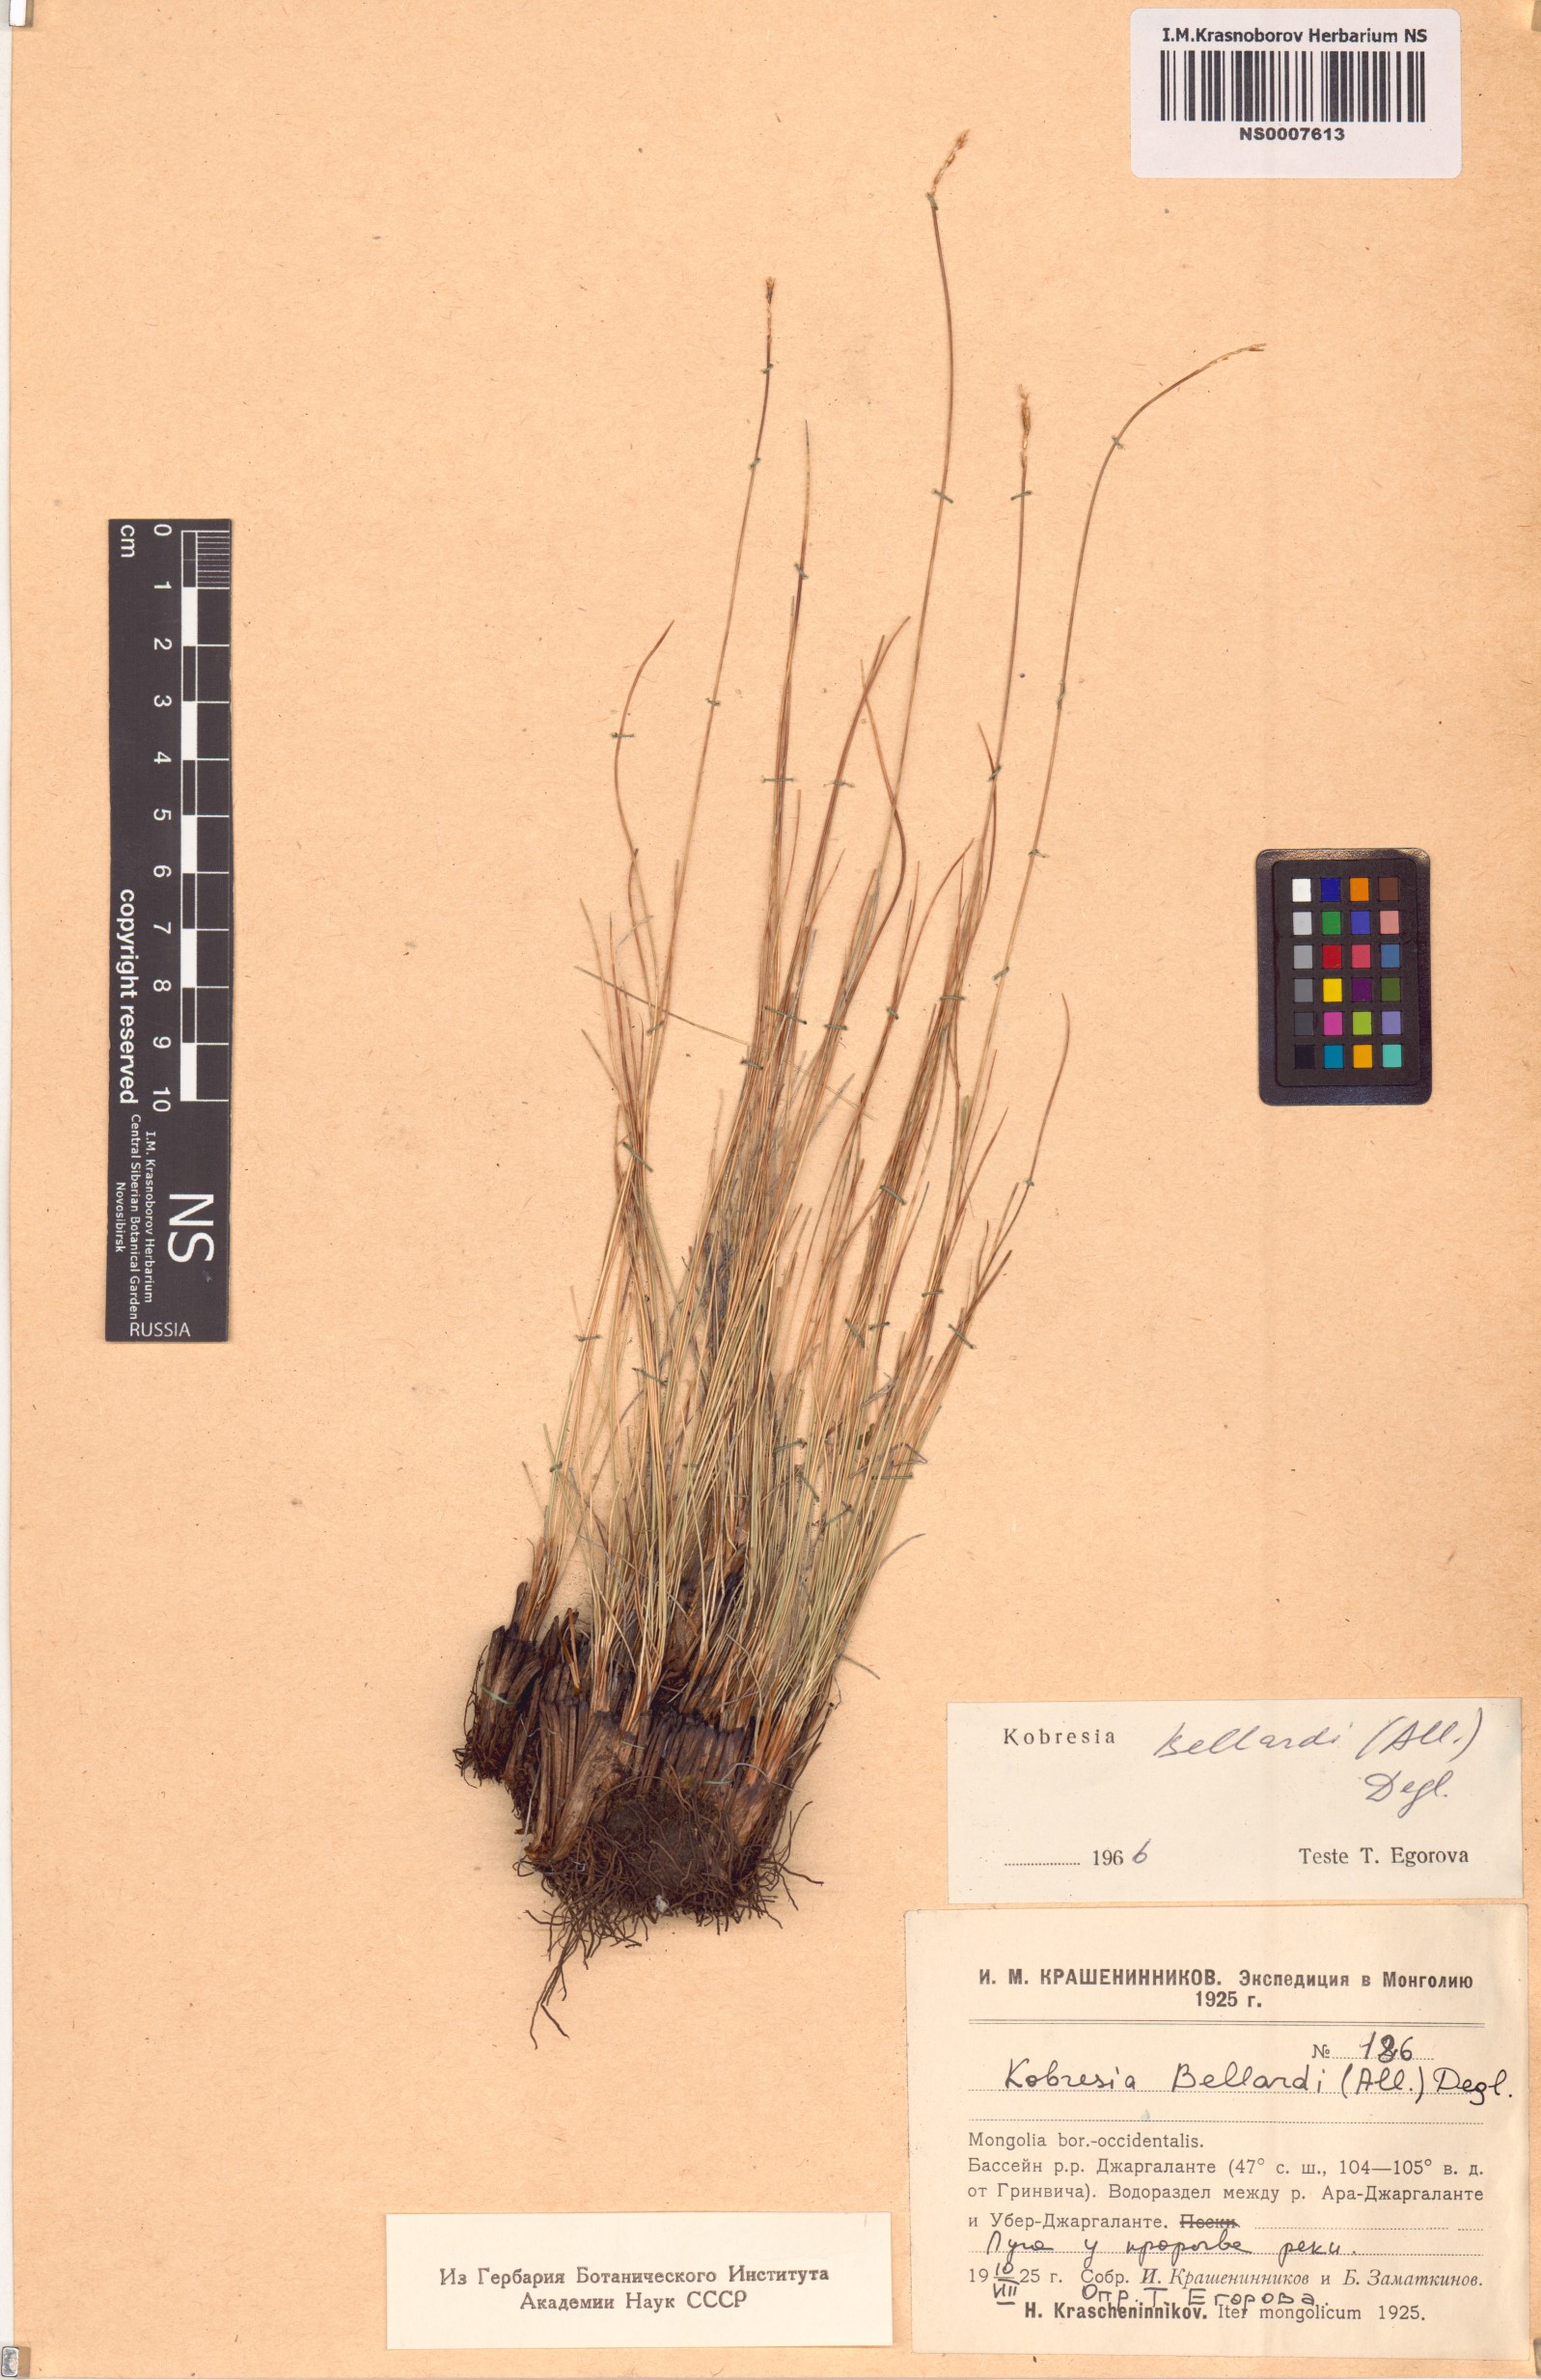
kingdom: Plantae
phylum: Tracheophyta
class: Liliopsida
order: Poales
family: Cyperaceae
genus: Carex
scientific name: Carex myosuroides
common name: Bellard's bog sedge
